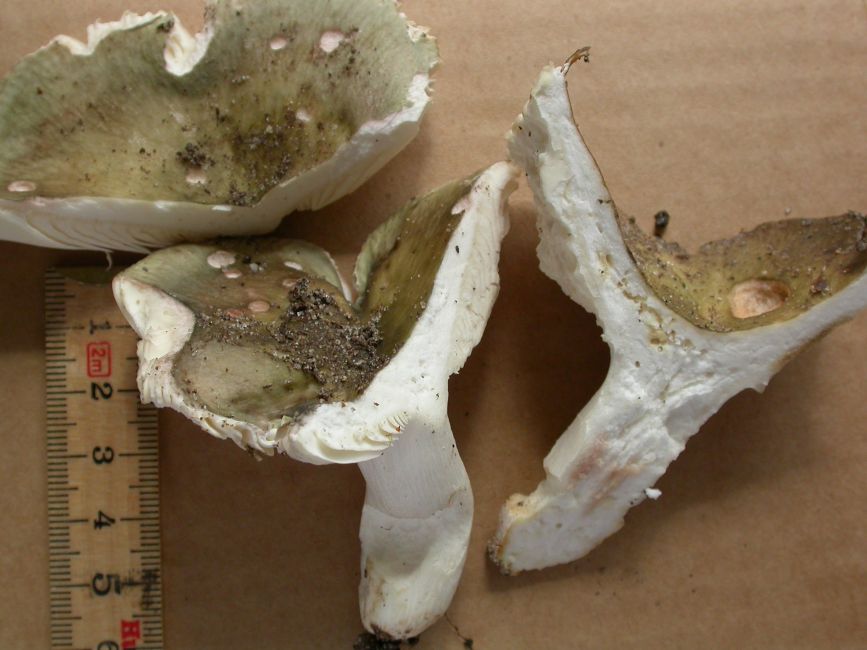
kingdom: Fungi
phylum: Basidiomycota
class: Agaricomycetes
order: Russulales
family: Russulaceae
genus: Russula
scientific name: Russula grisea
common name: grålig skørhat
